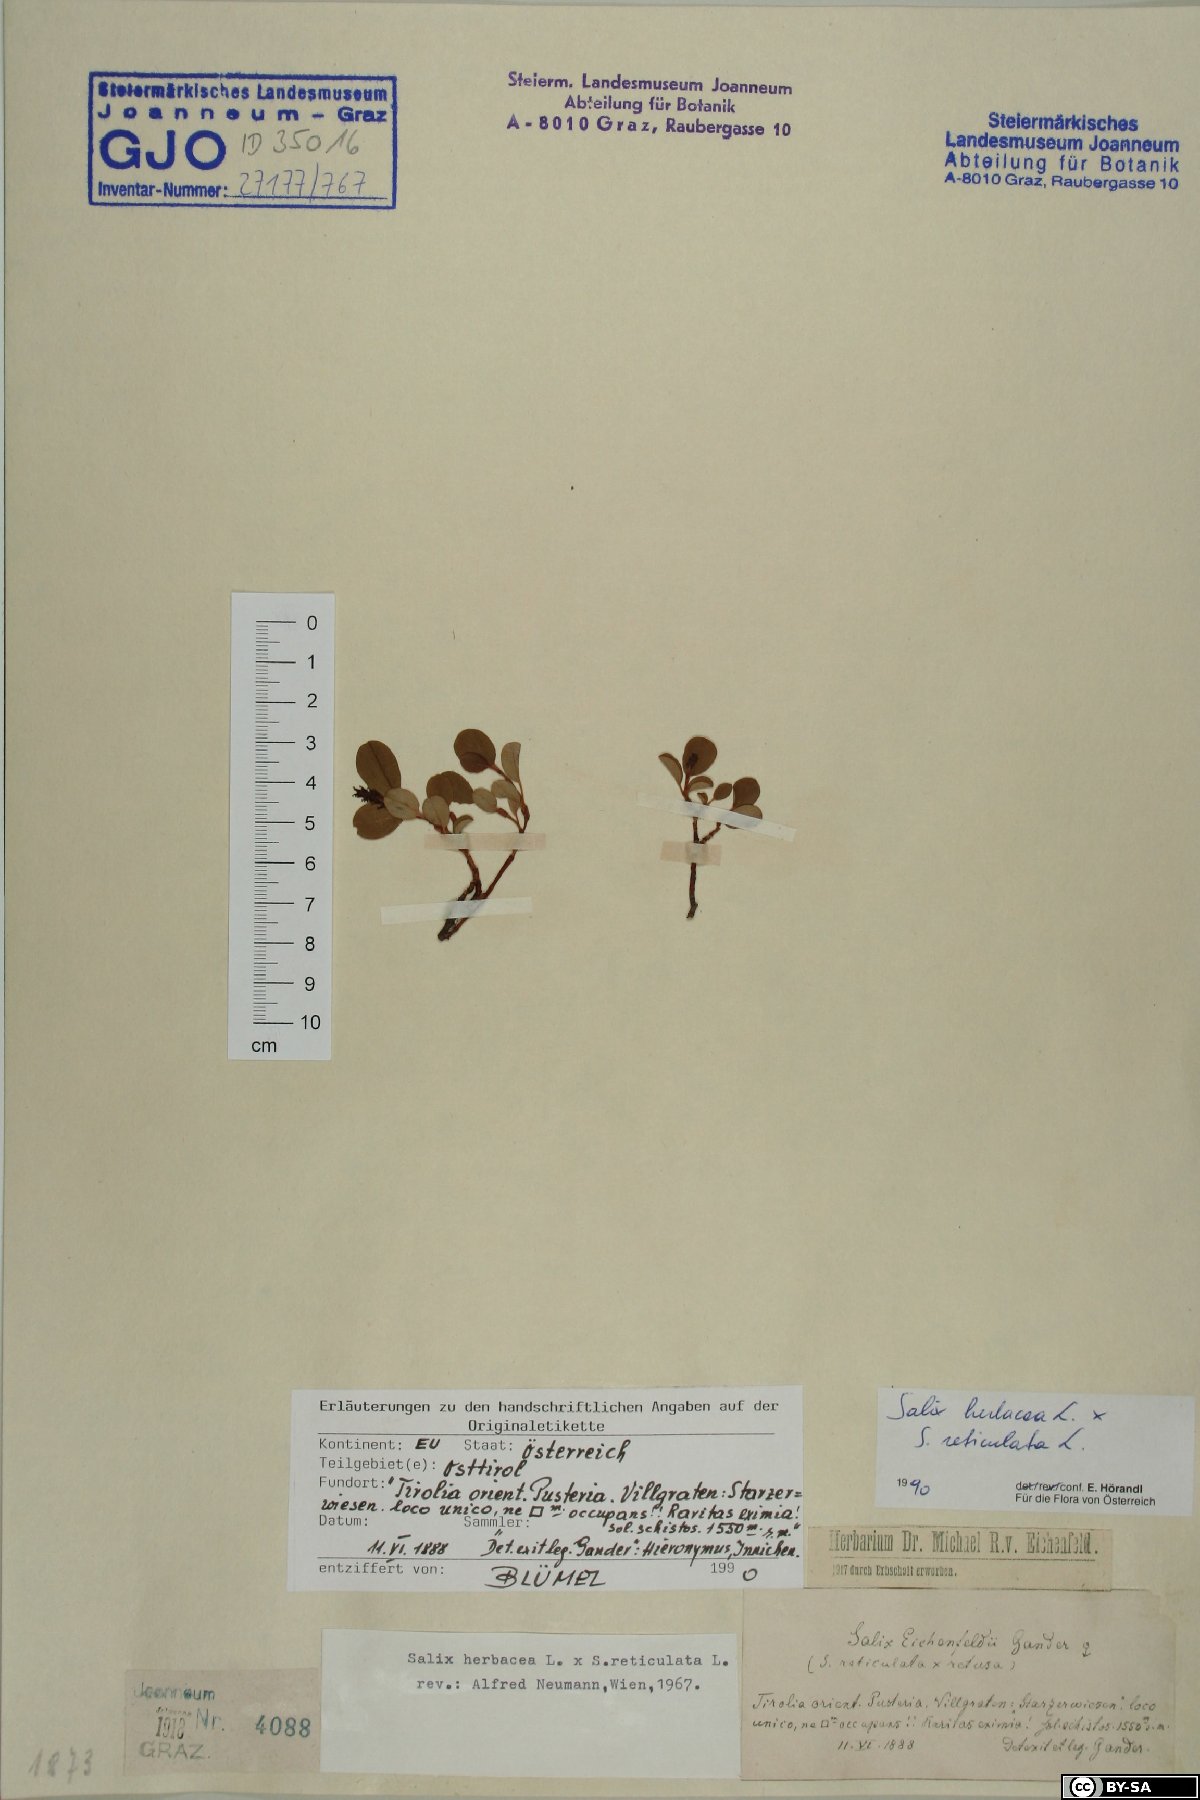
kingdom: Plantae
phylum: Tracheophyta
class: Magnoliopsida
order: Malpighiales
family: Salicaceae
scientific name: Salicaceae
